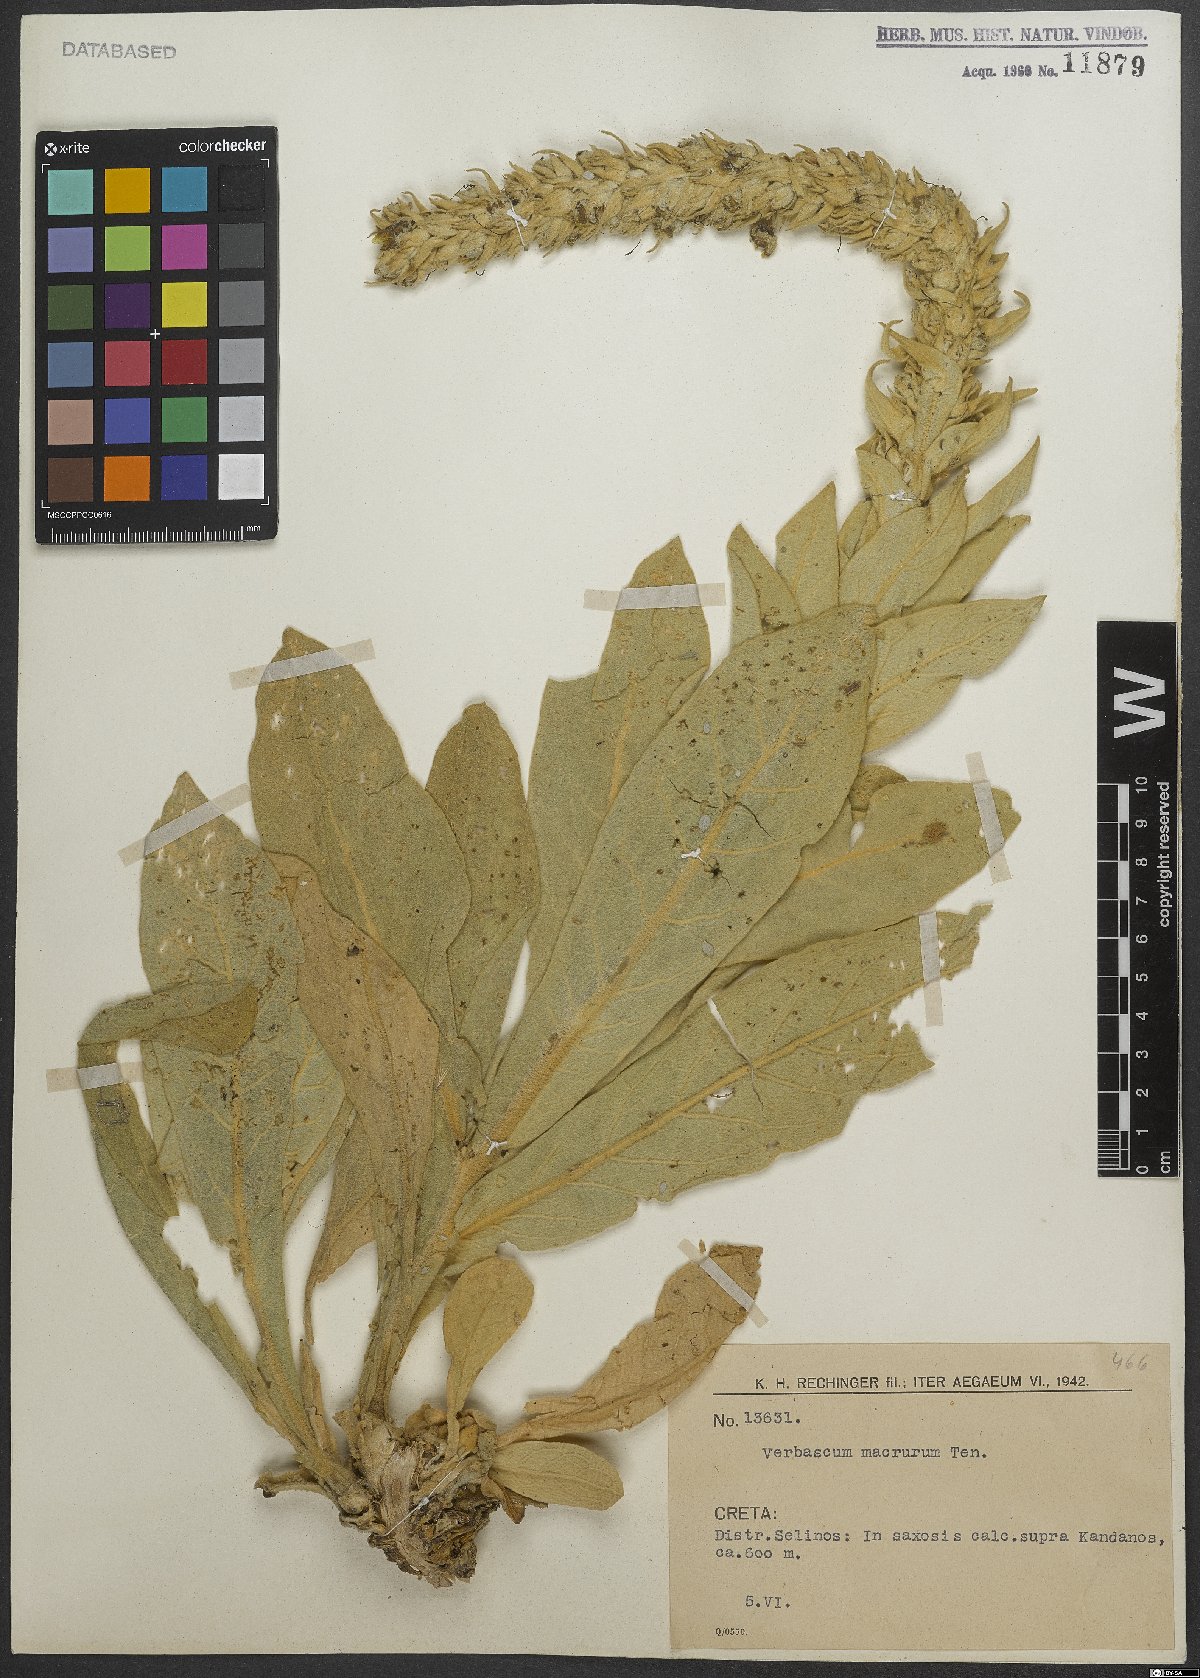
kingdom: Plantae
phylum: Tracheophyta
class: Magnoliopsida
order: Lamiales
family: Scrophulariaceae
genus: Verbascum
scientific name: Verbascum macrurum
